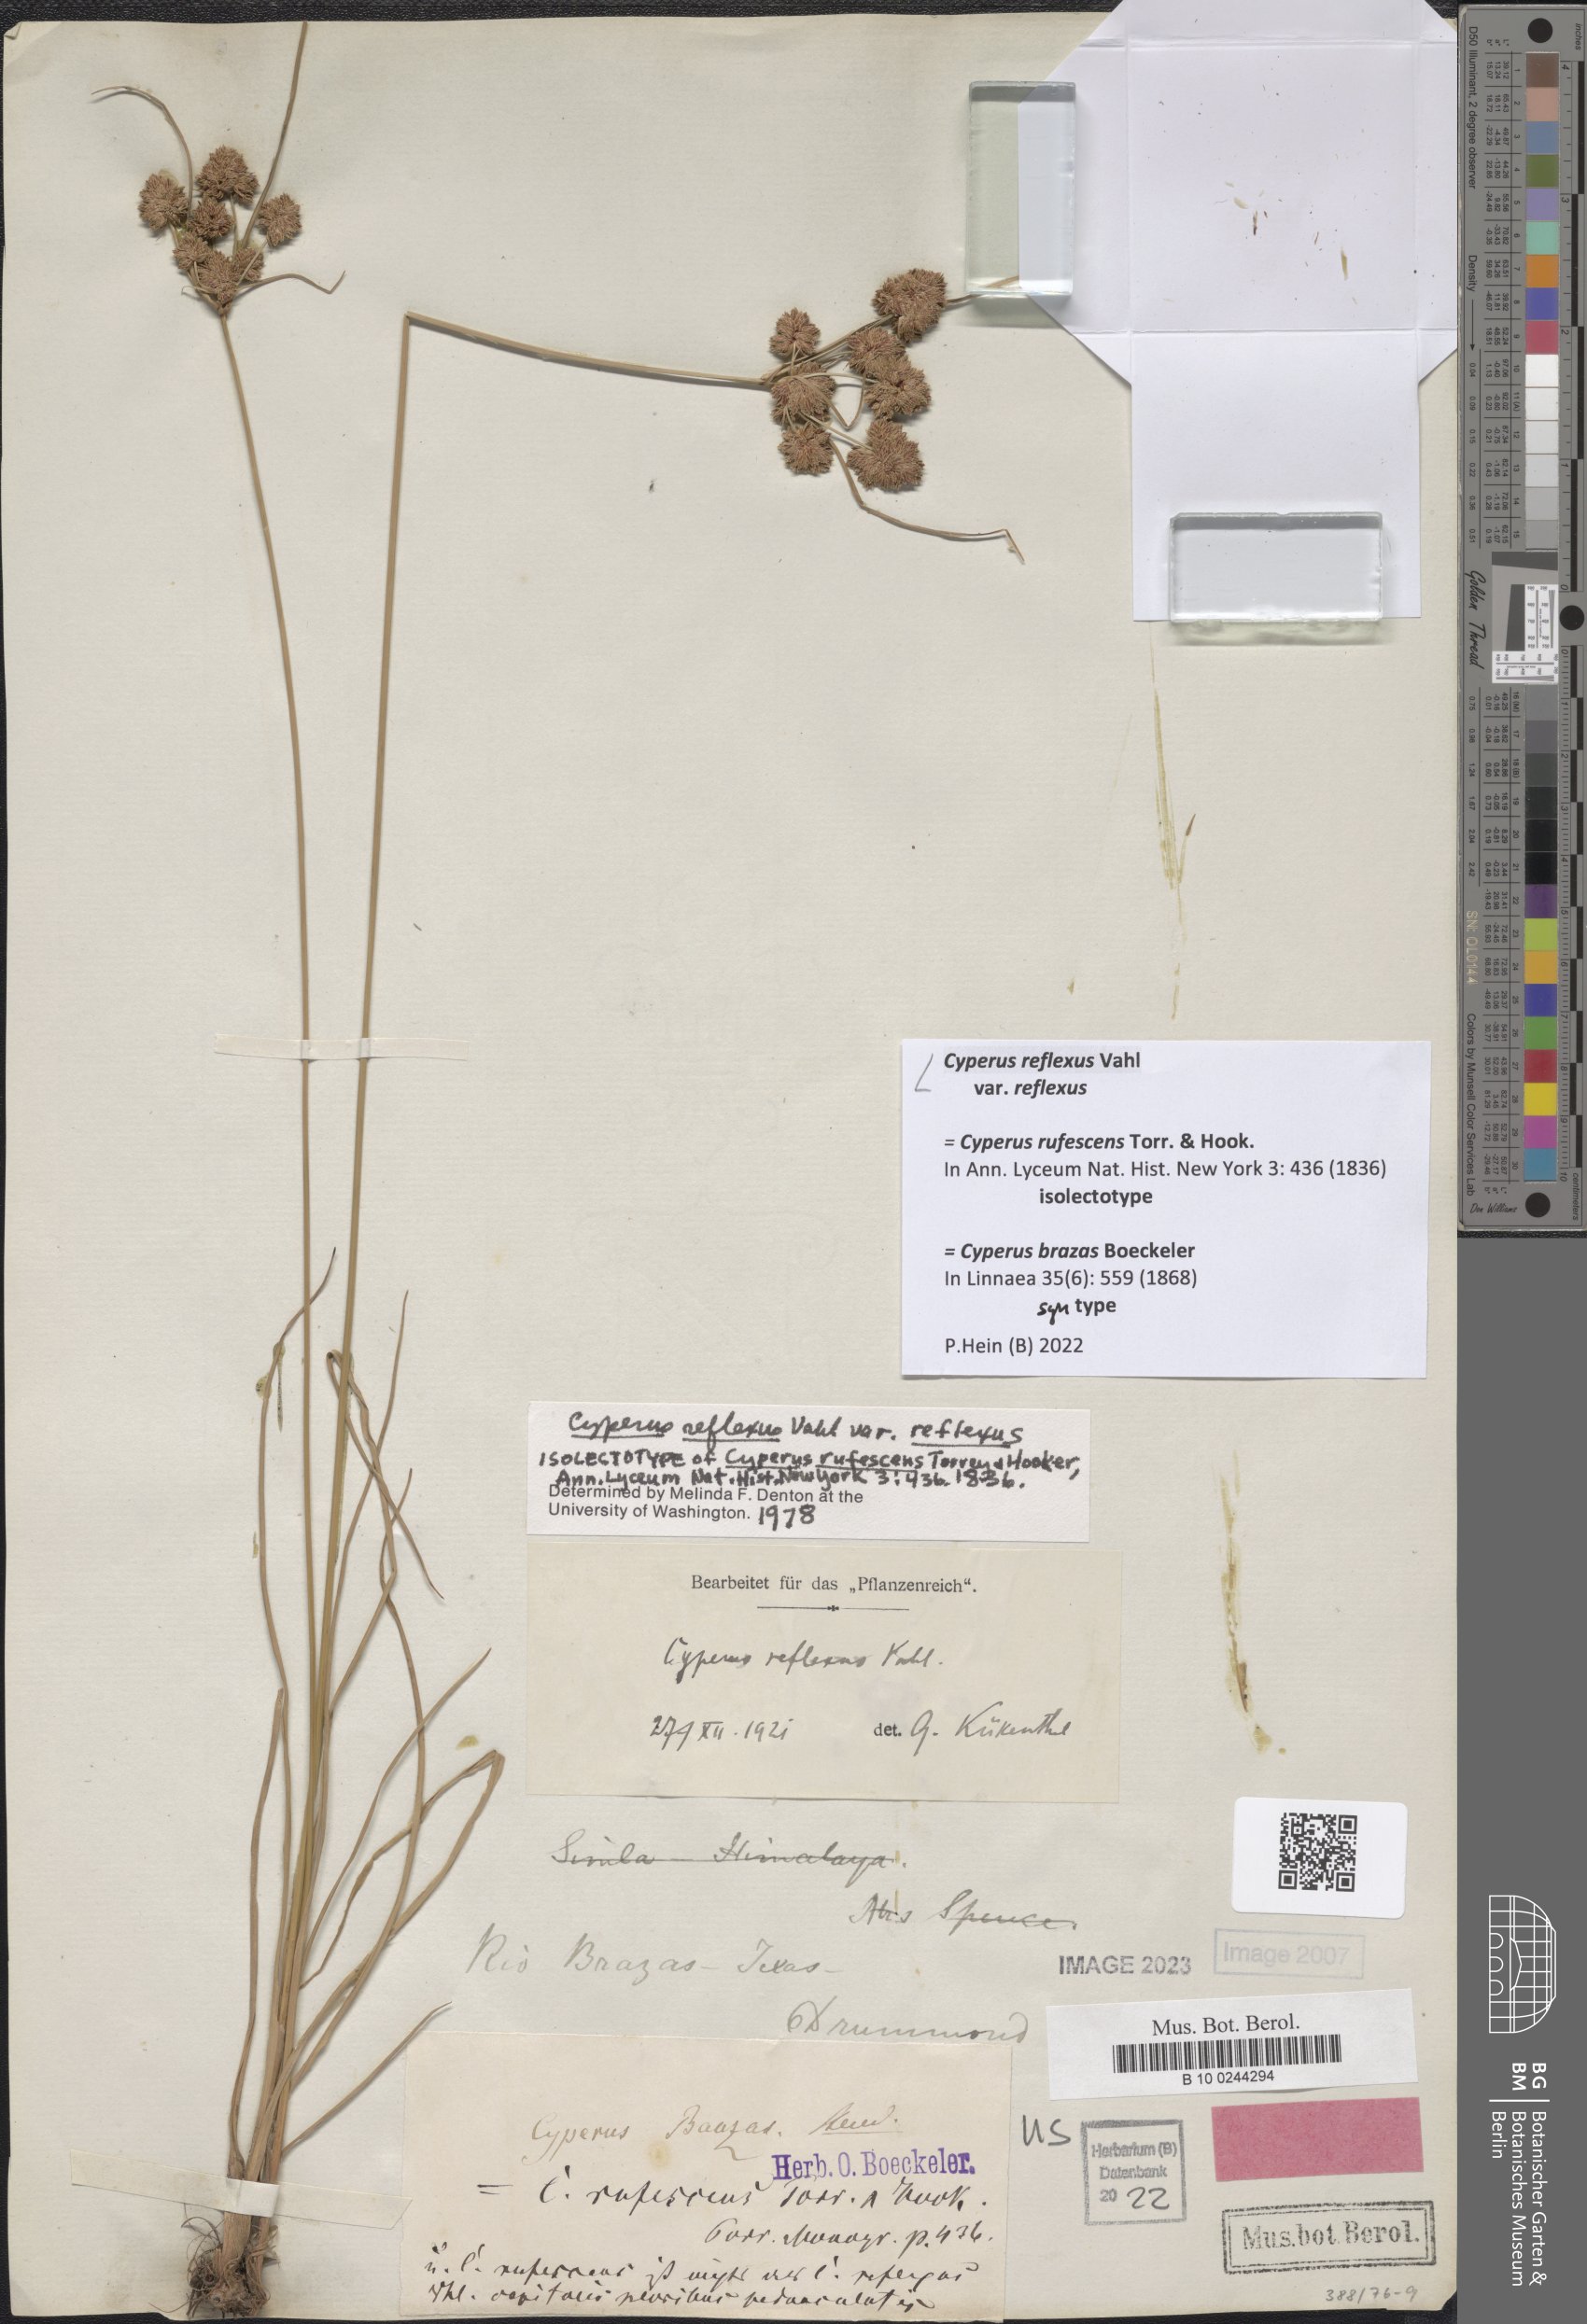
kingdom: Plantae
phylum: Tracheophyta
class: Liliopsida
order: Poales
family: Cyperaceae
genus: Cyperus
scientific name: Cyperus reflexus
